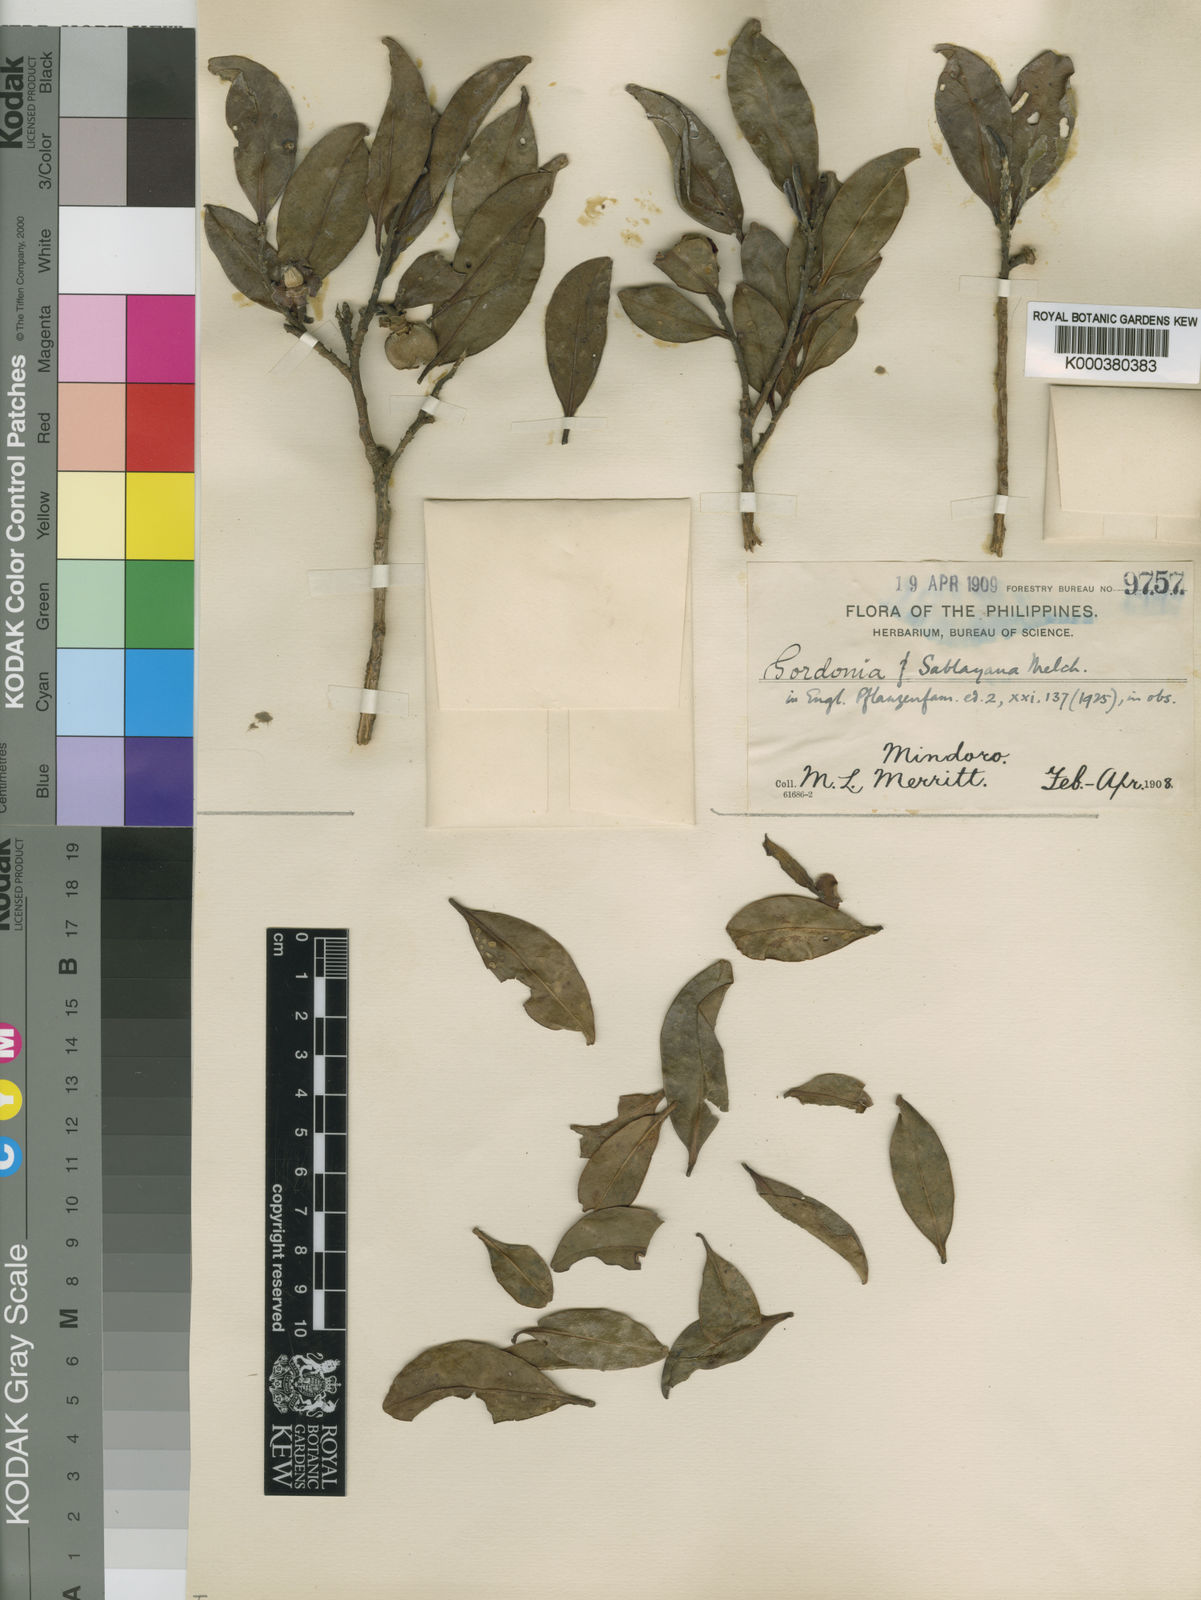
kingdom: Plantae
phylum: Tracheophyta
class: Magnoliopsida
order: Ericales
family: Theaceae
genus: Polyspora
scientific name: Polyspora sablayana
